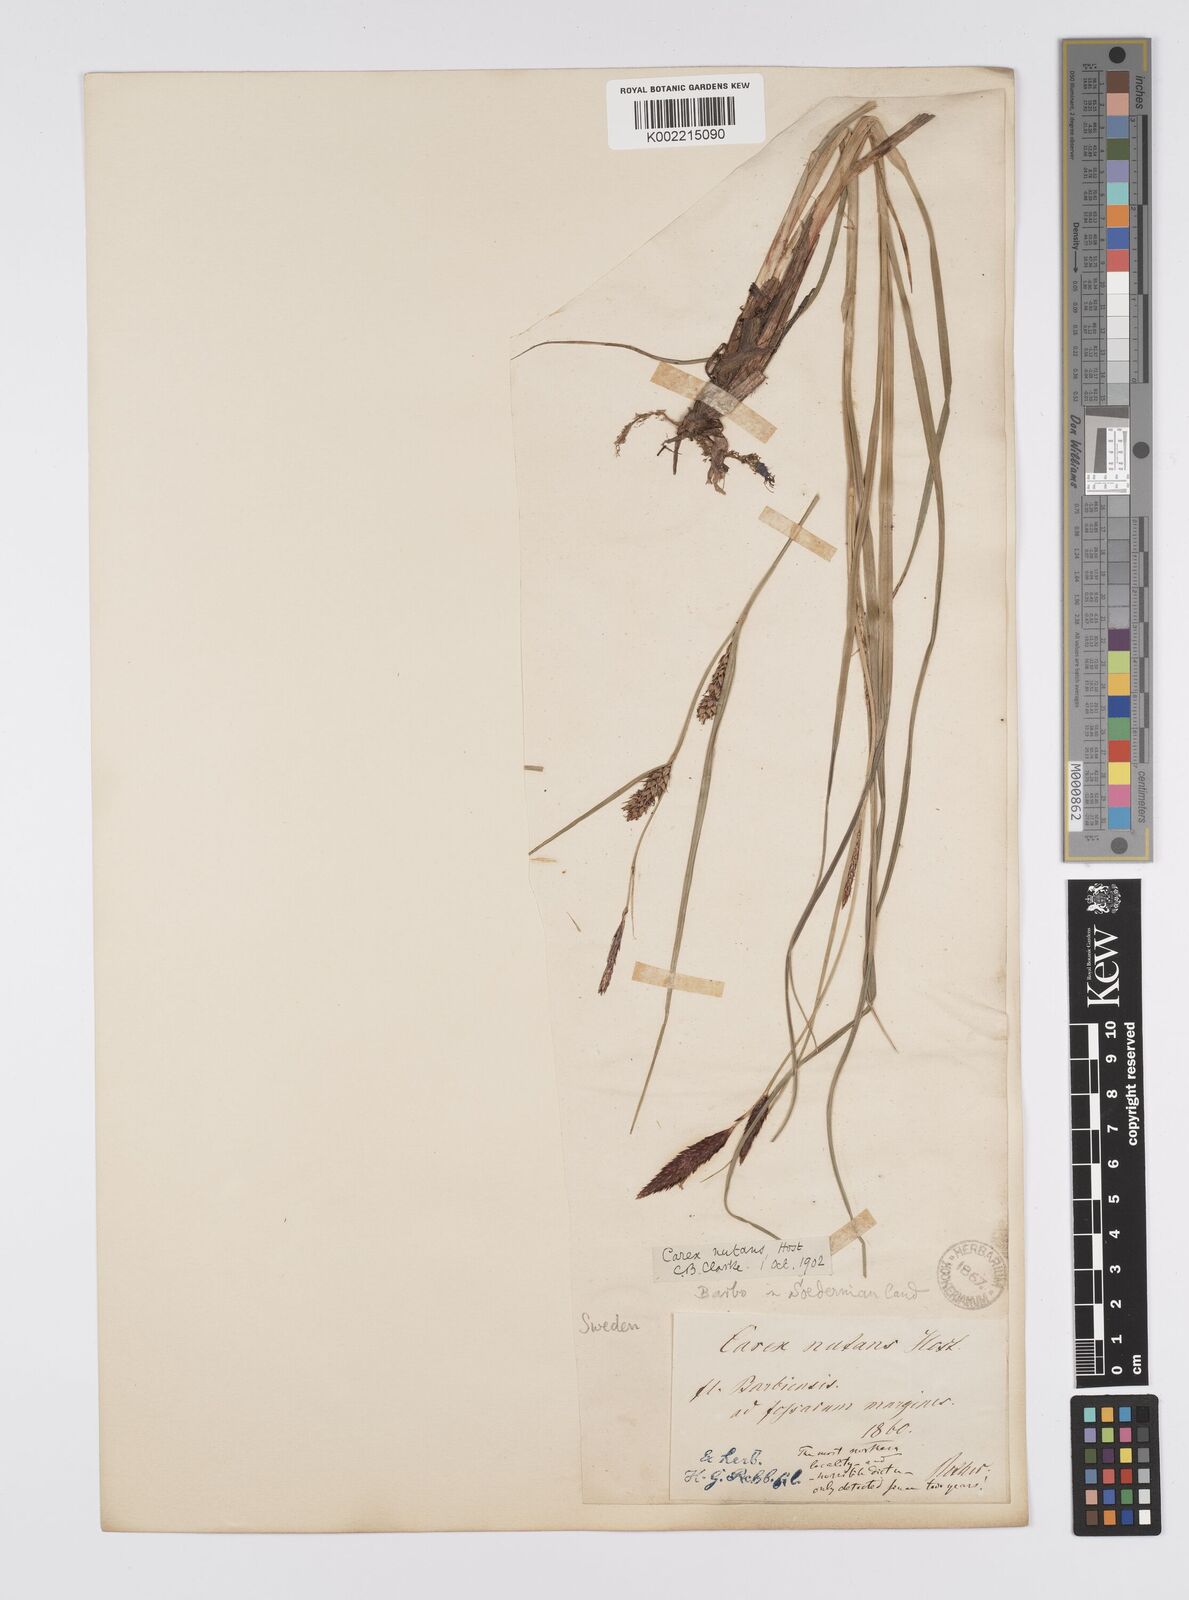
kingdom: Plantae
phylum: Tracheophyta
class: Liliopsida
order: Poales
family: Cyperaceae
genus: Carex
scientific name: Carex melanostachya
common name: Black-spiked sedge
